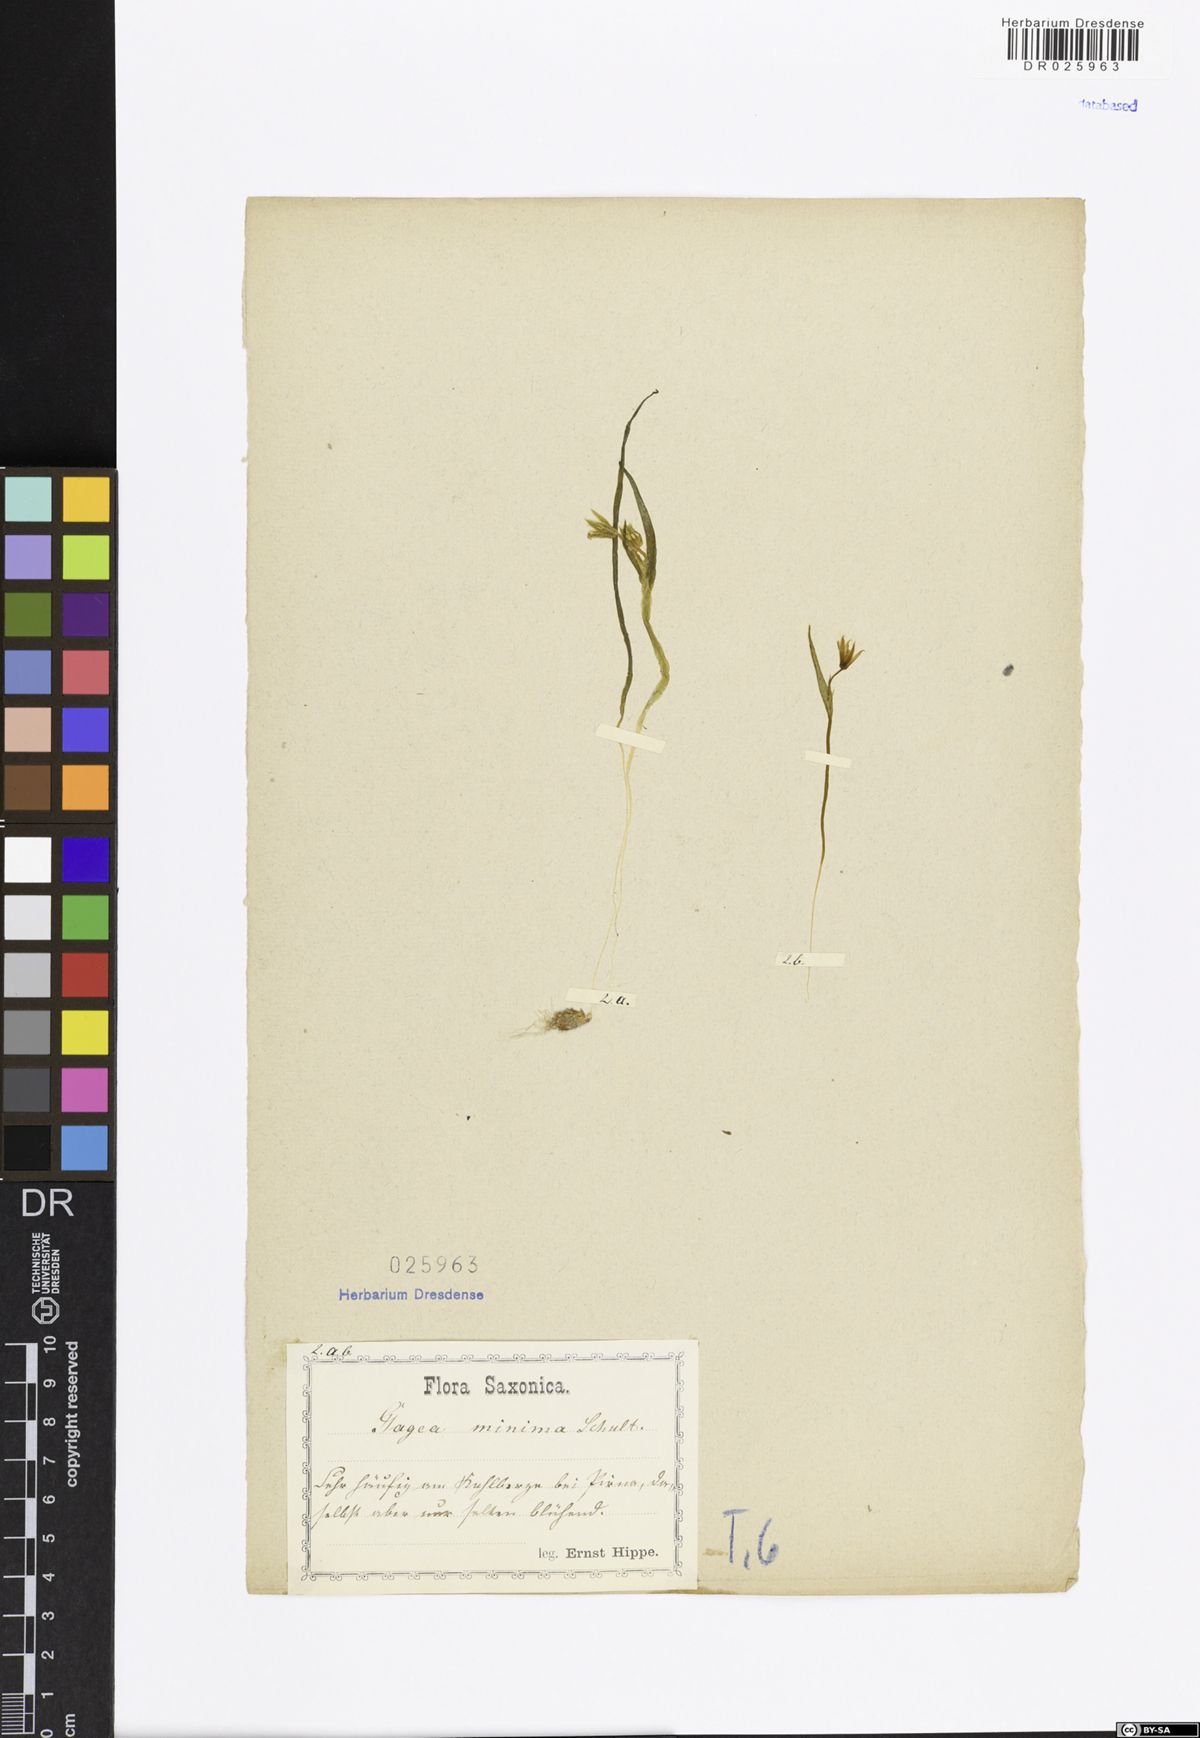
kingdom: Plantae
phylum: Tracheophyta
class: Liliopsida
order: Liliales
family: Liliaceae
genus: Gagea
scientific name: Gagea minima
